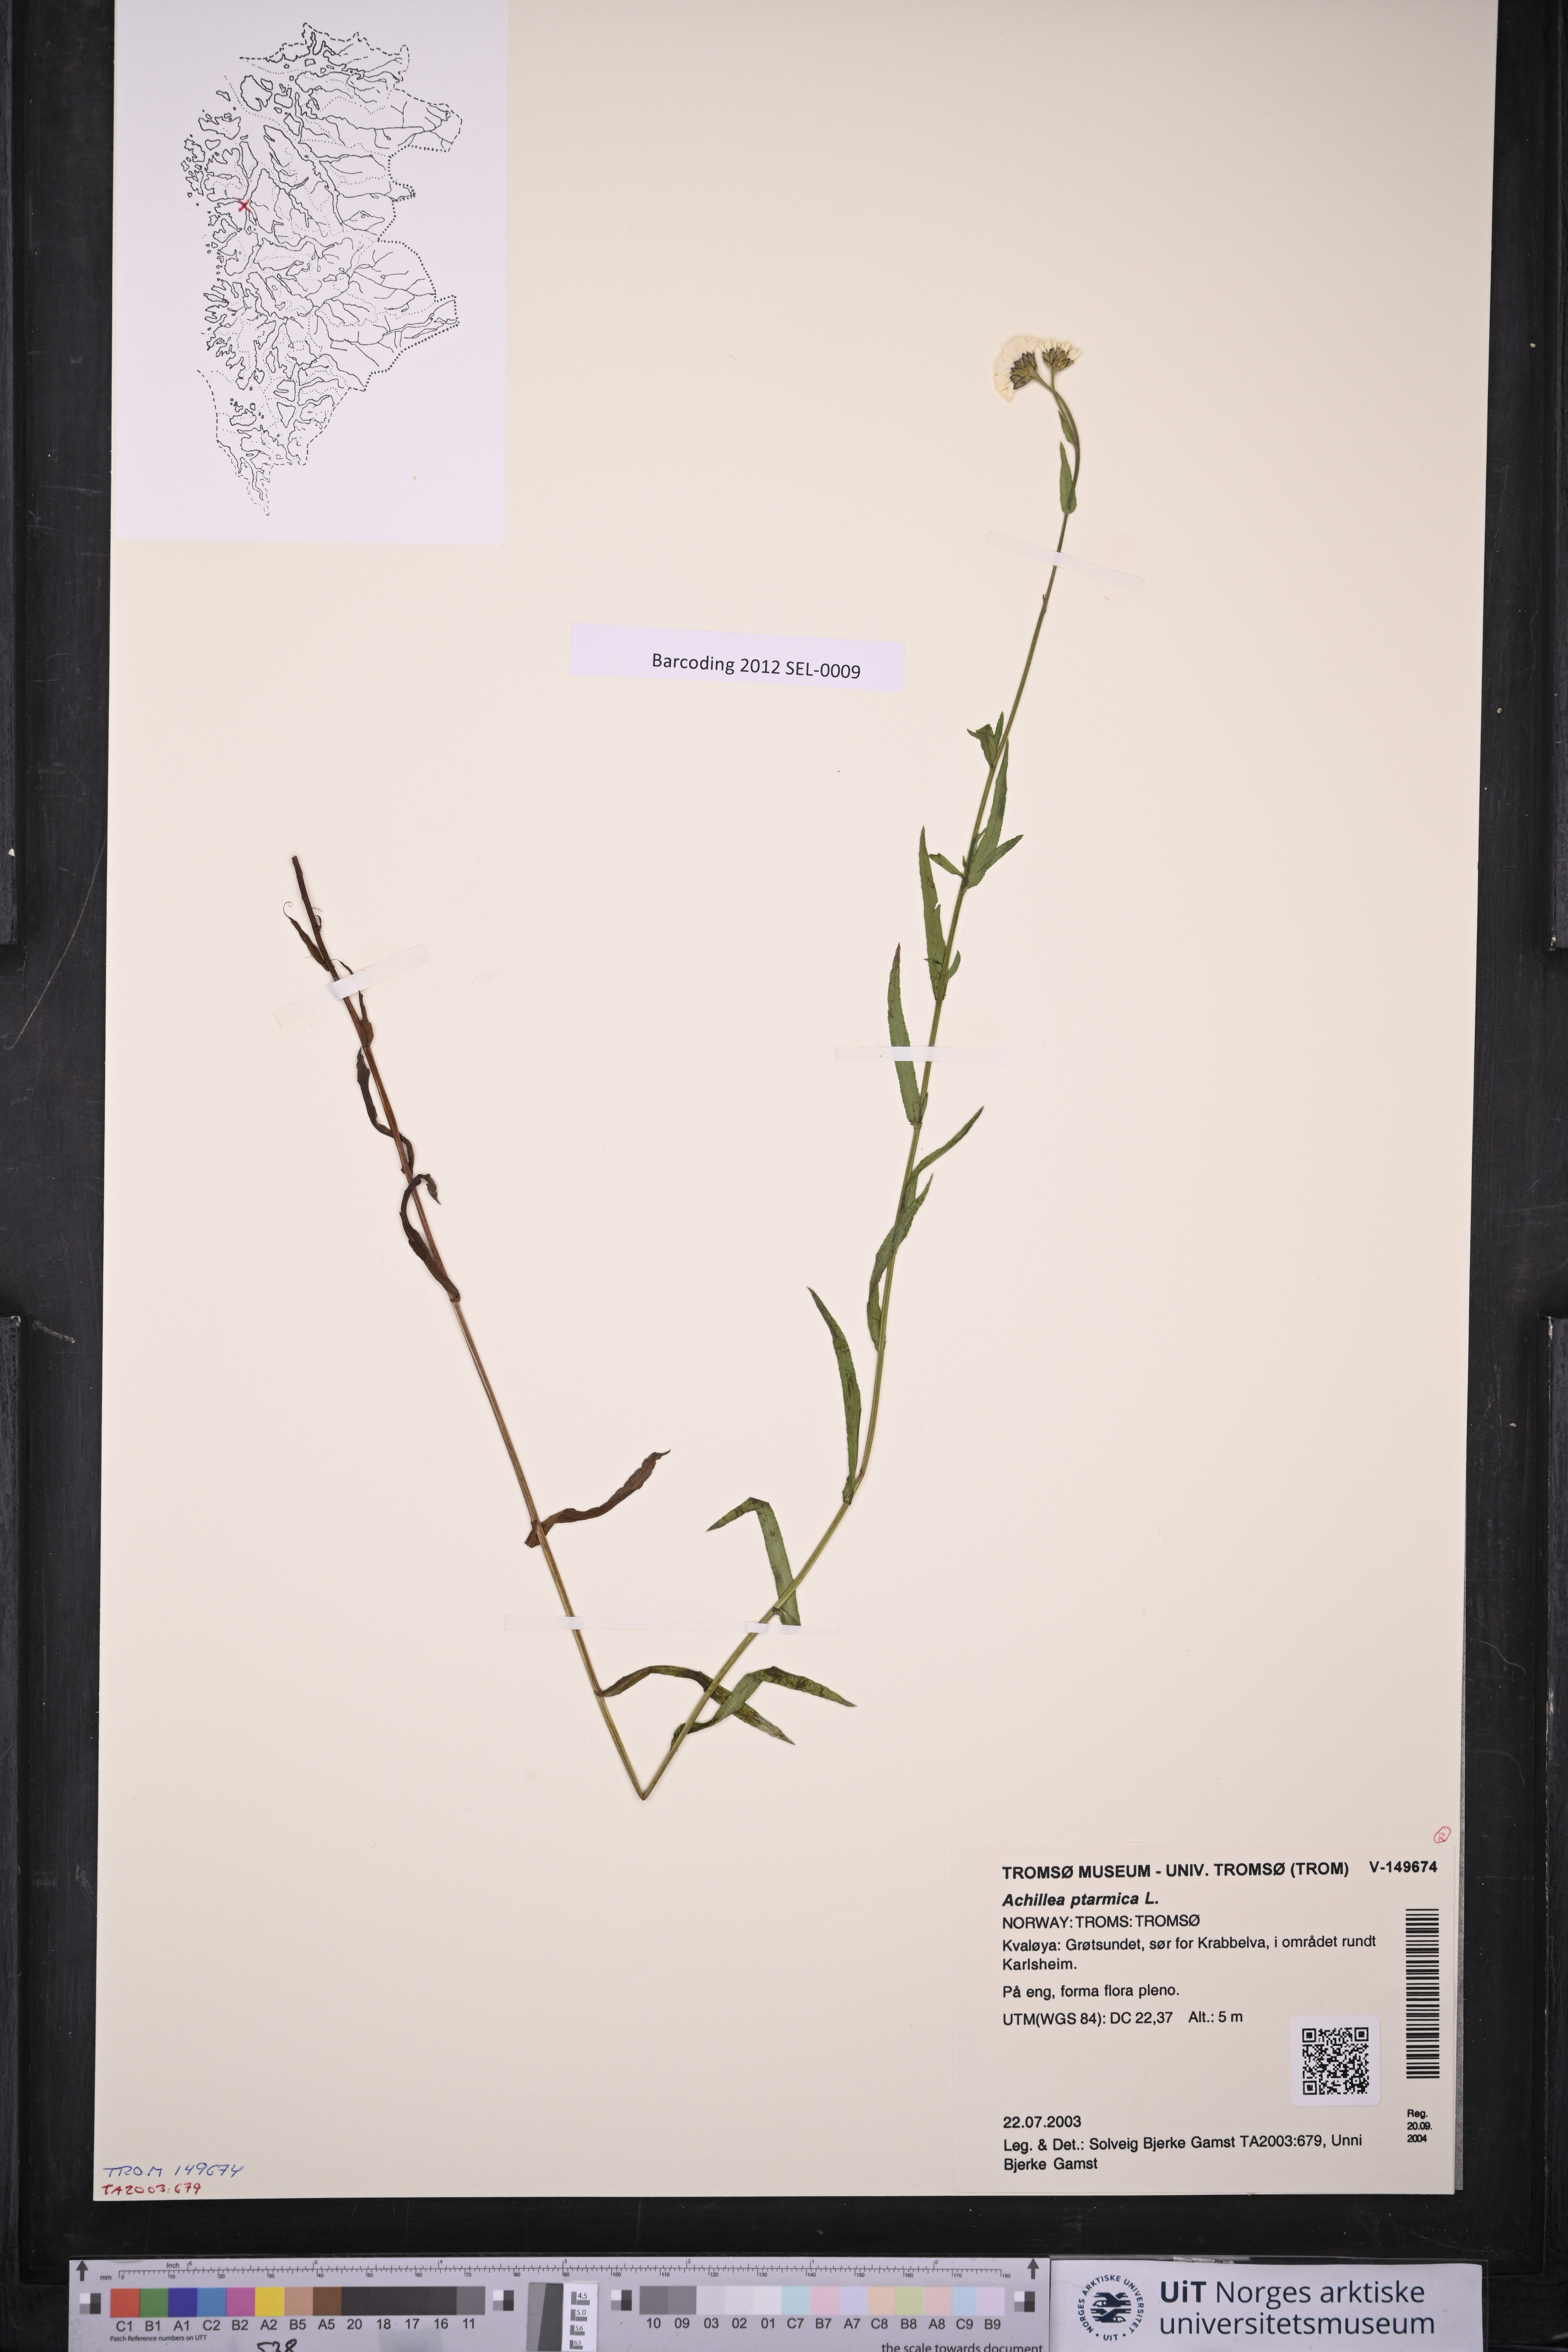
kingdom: Plantae
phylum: Tracheophyta
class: Magnoliopsida
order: Asterales
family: Asteraceae
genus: Achillea
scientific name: Achillea ptarmica
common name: Sneezeweed
